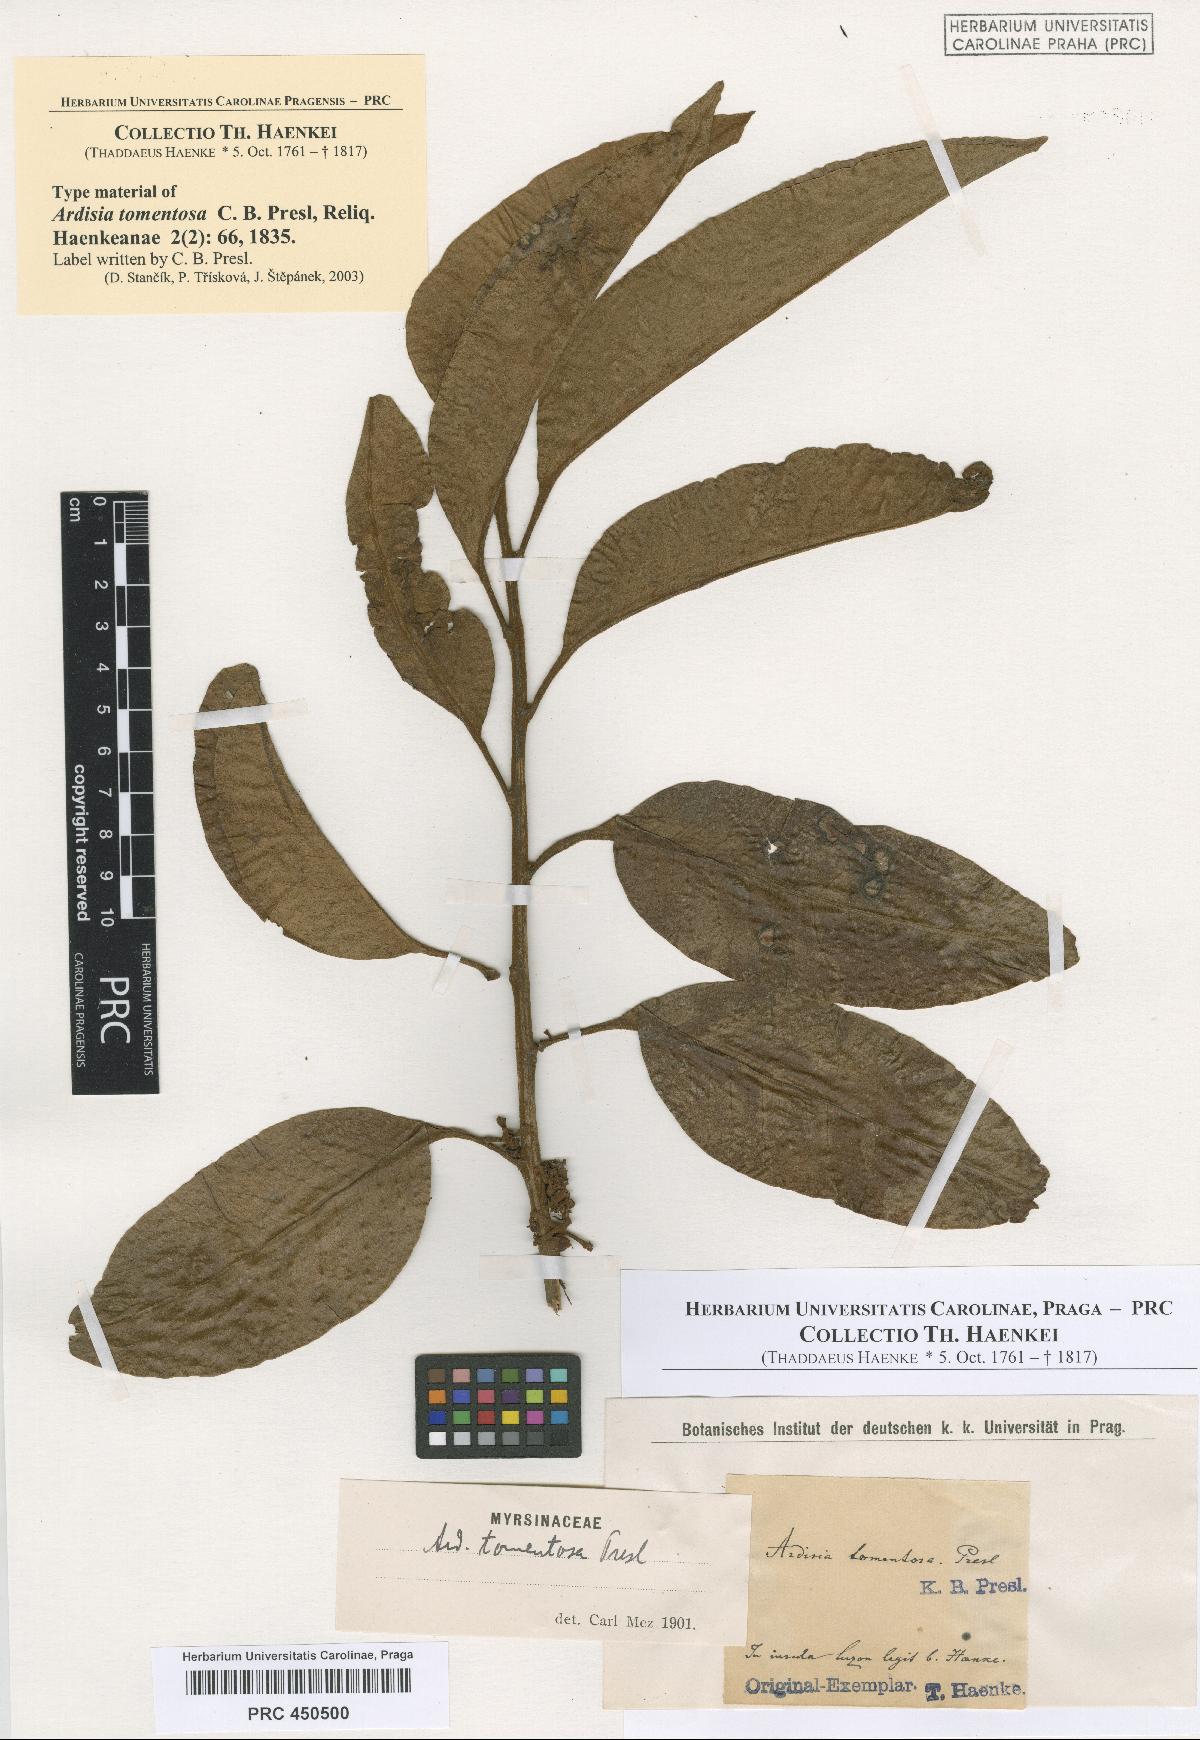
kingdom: Plantae
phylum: Tracheophyta
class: Magnoliopsida
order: Ericales
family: Primulaceae
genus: Ardisia
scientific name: Ardisia tomentosa
